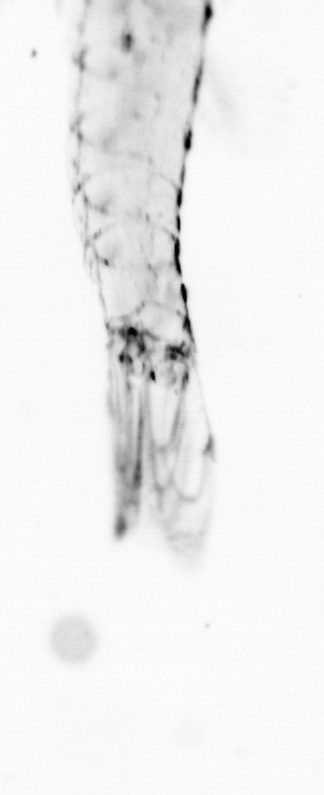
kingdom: Animalia
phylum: Chordata
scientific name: Chordata
